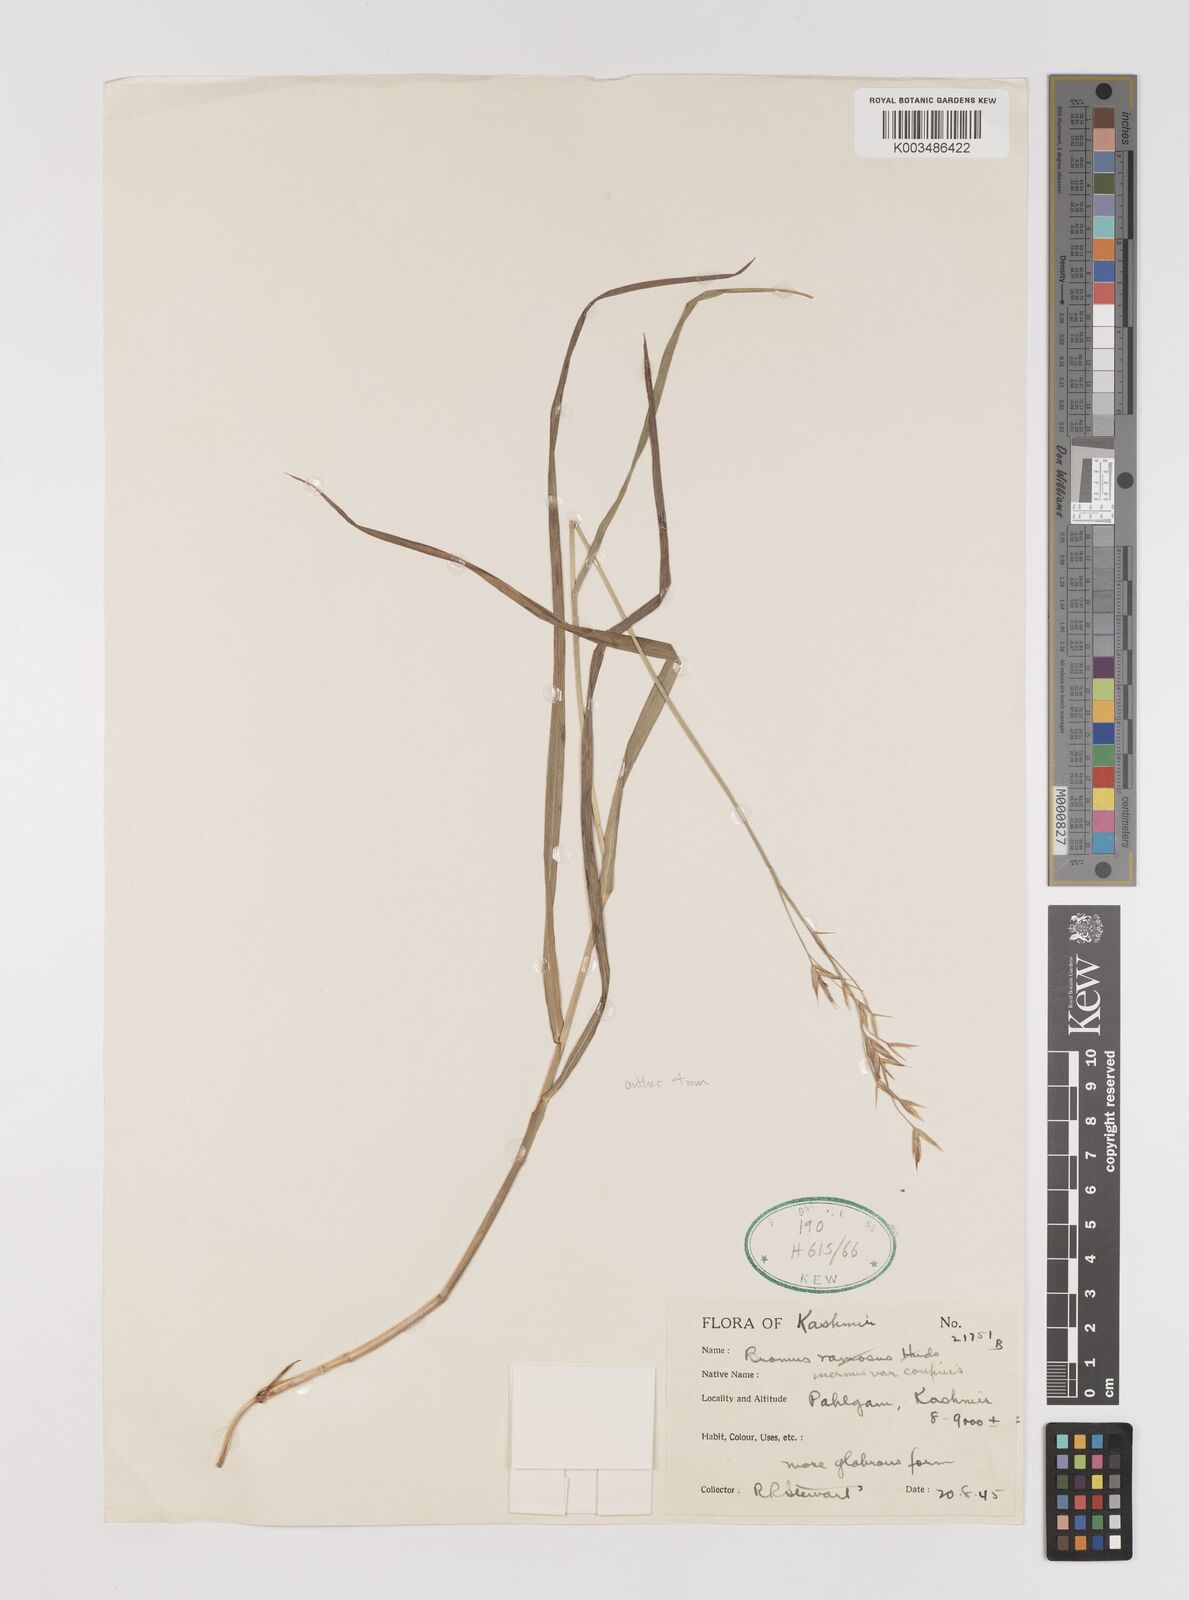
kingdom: Plantae
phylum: Tracheophyta
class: Liliopsida
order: Poales
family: Poaceae
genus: Bromus
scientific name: Bromus confinis
